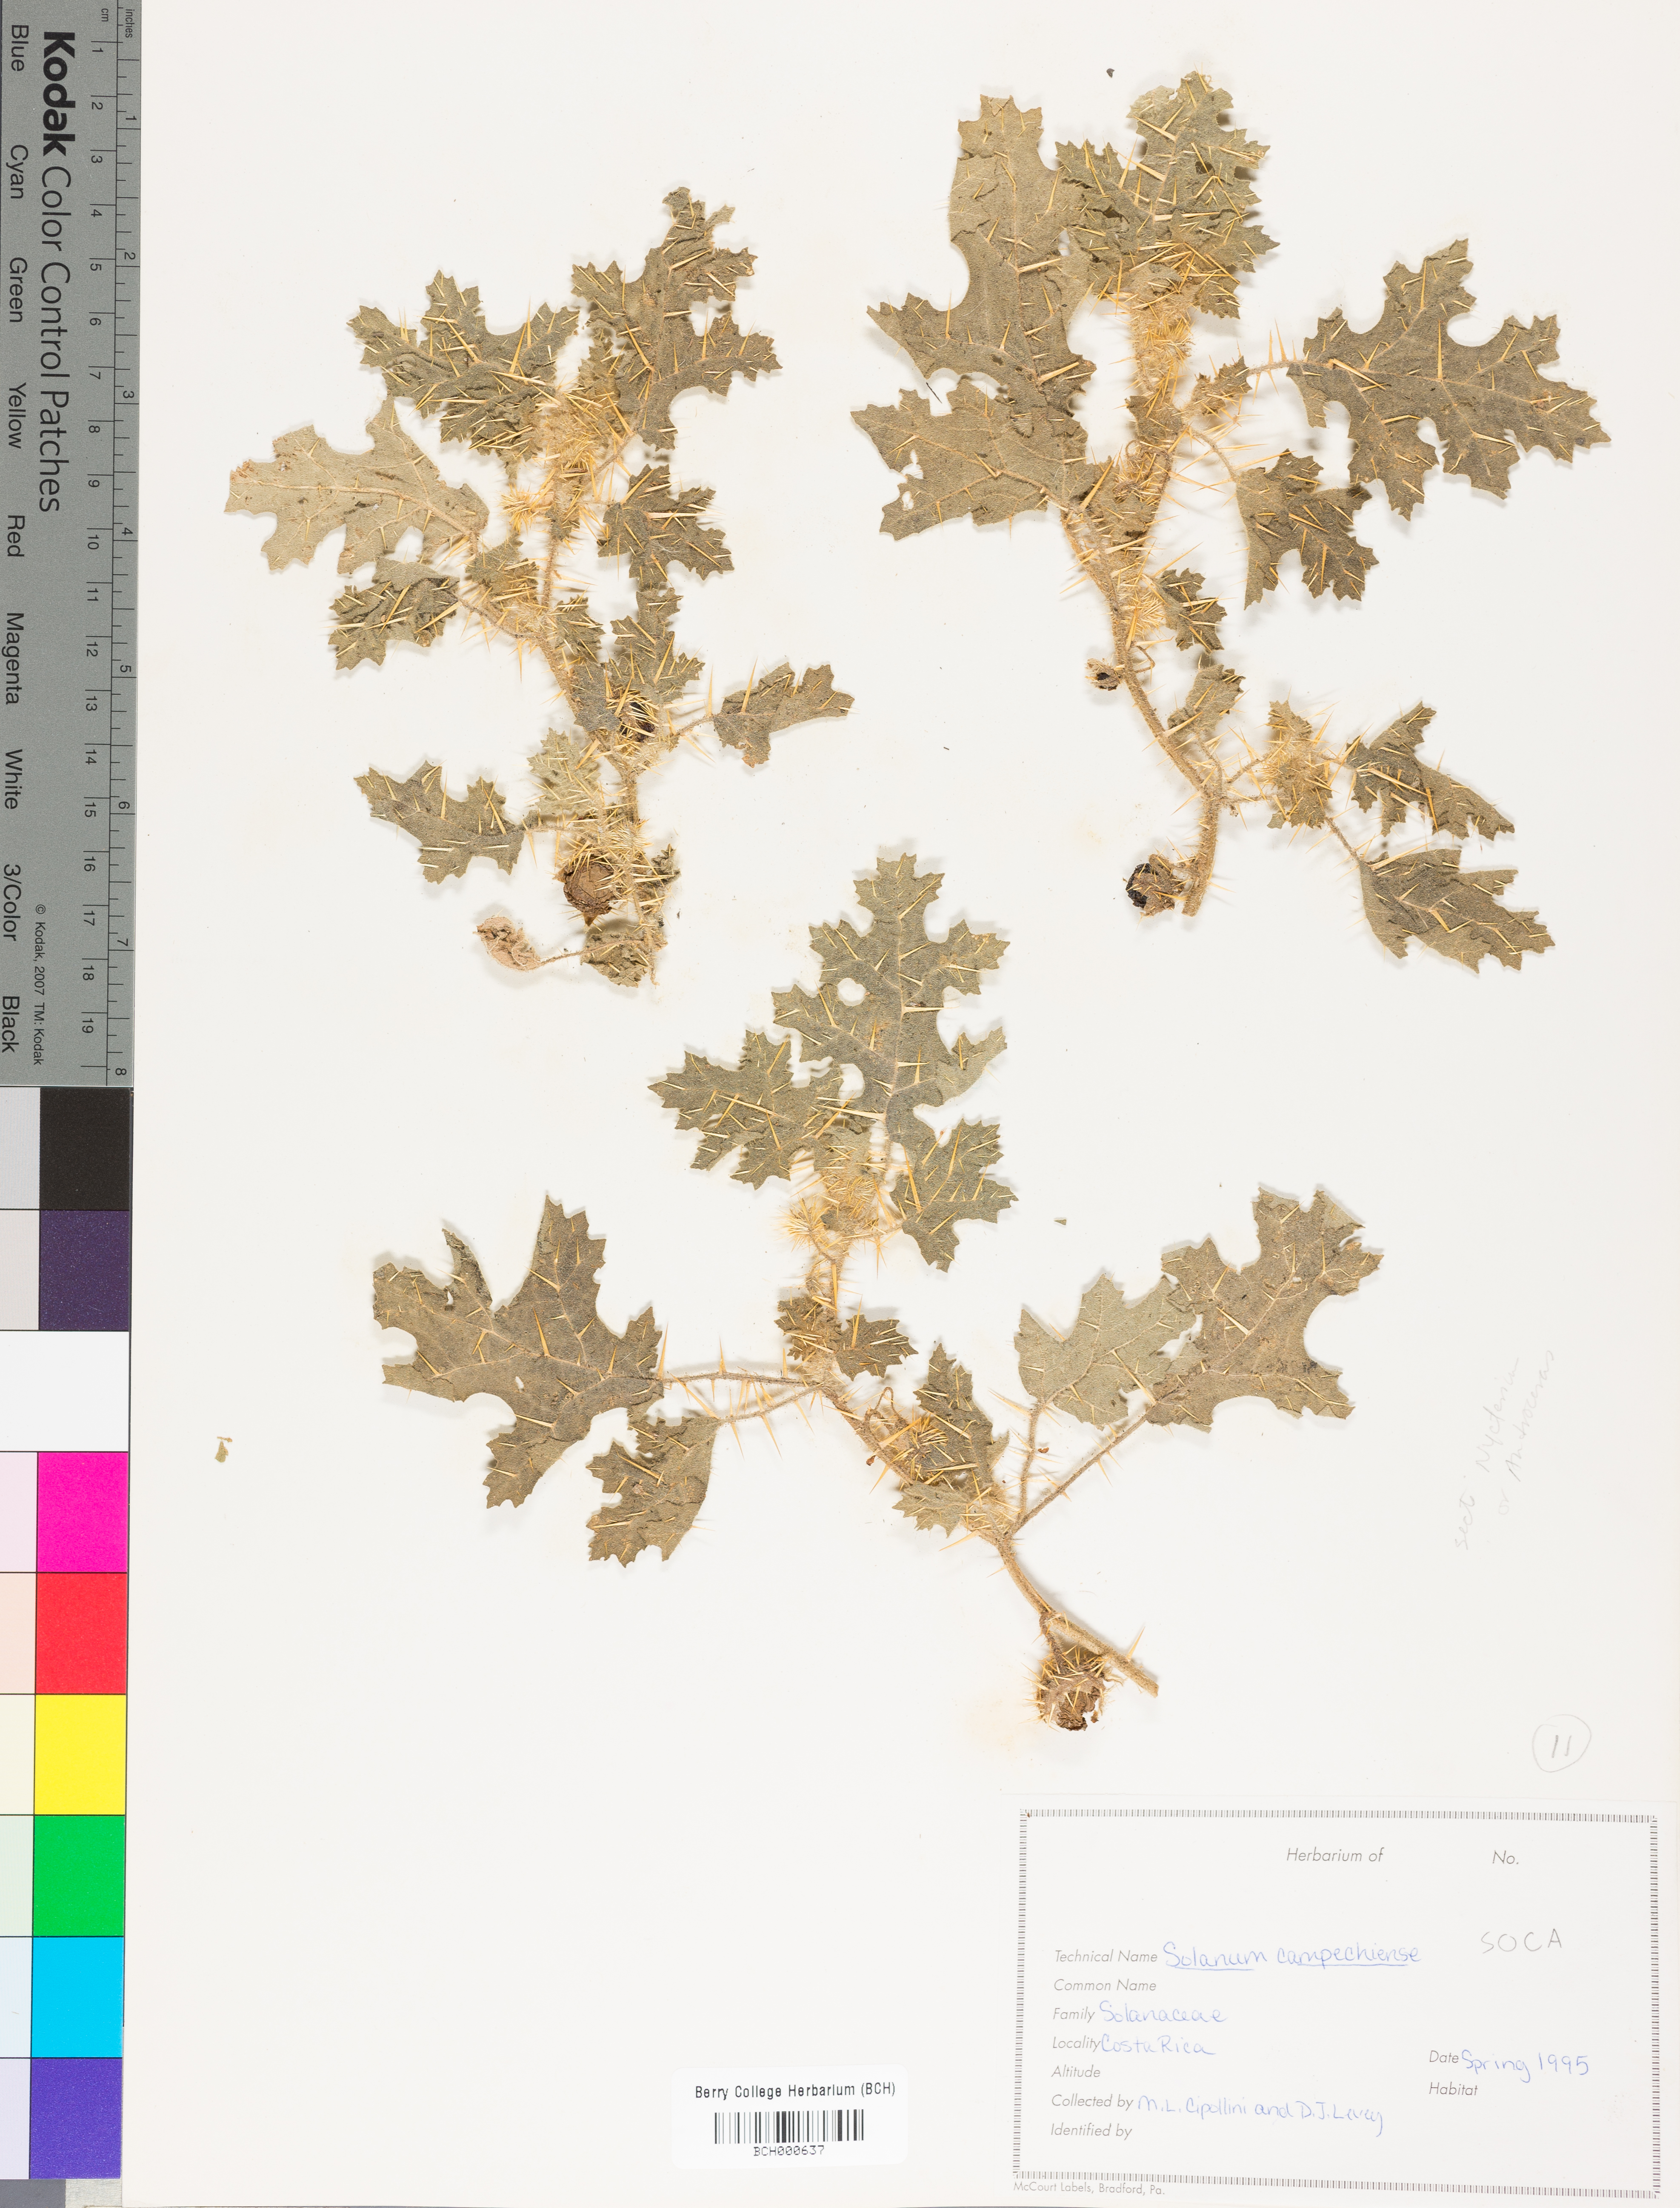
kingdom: Plantae
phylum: Tracheophyta
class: Magnoliopsida
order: Solanales
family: Solanaceae
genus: Solanum
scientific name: Solanum campechiense
